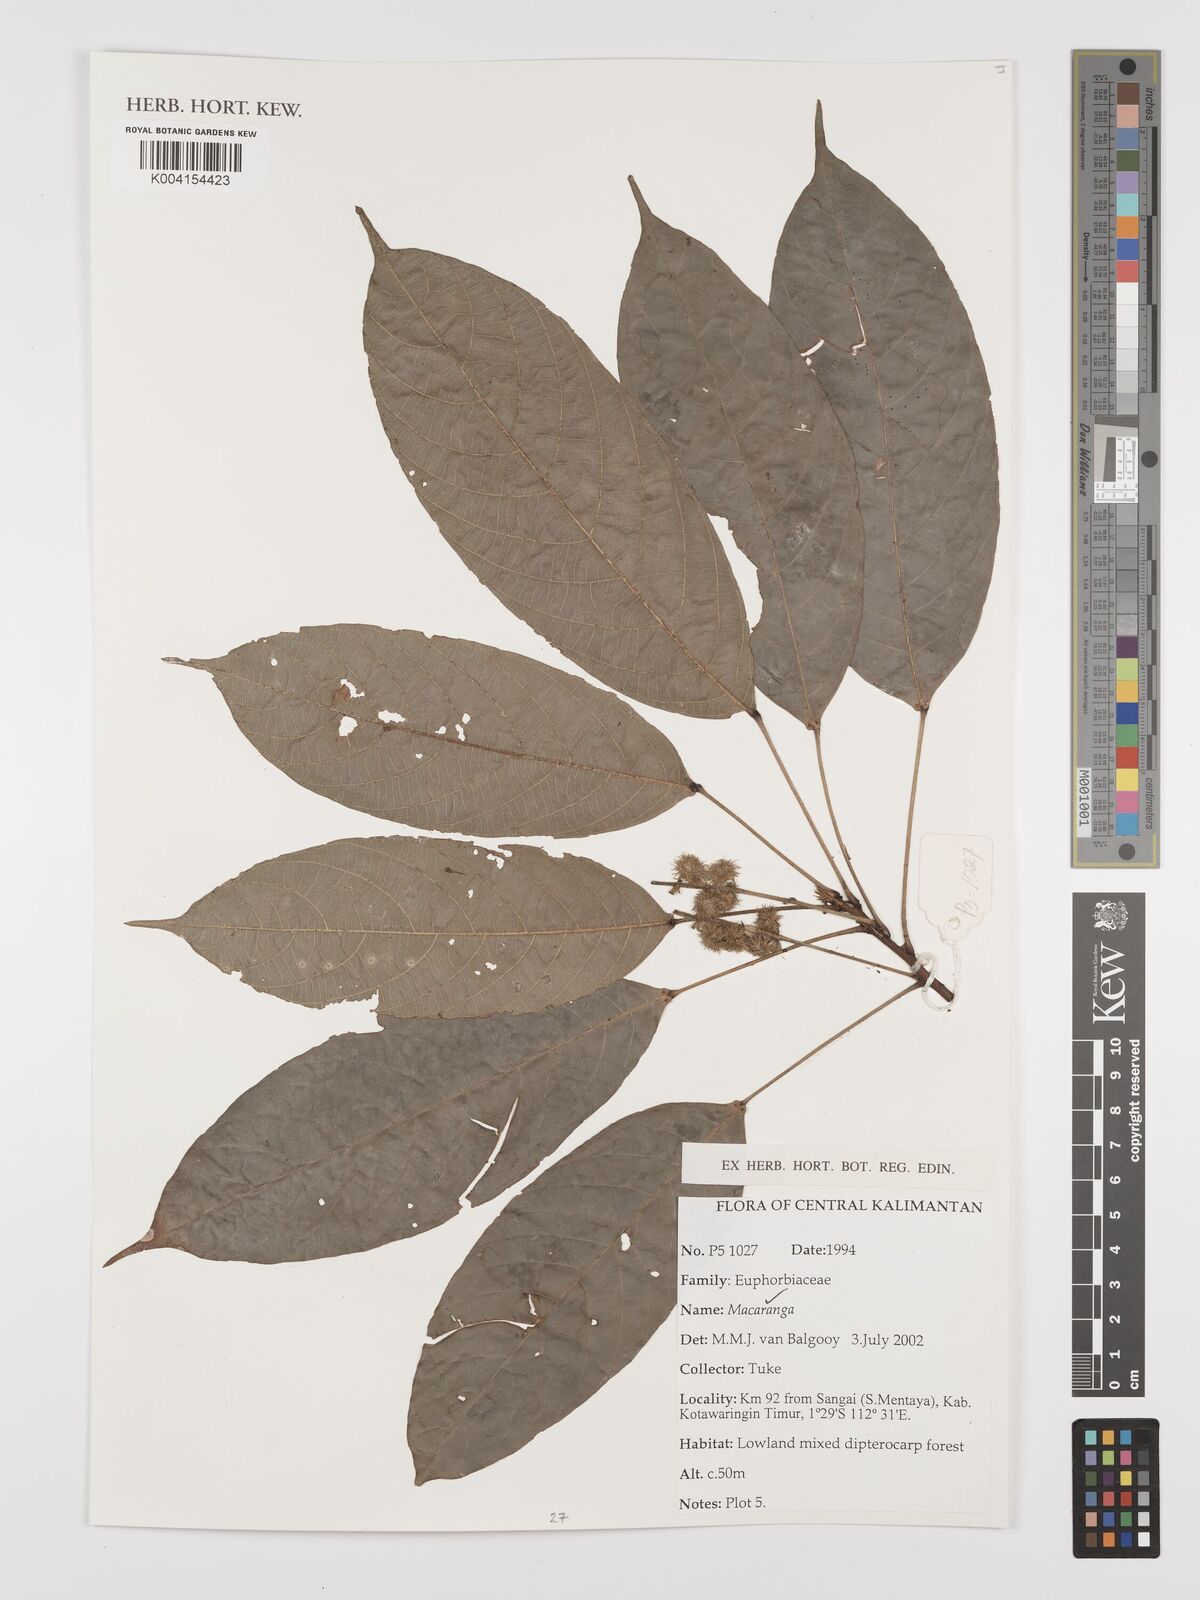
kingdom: Plantae
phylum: Tracheophyta
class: Magnoliopsida
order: Malpighiales
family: Euphorbiaceae
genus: Macaranga
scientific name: Macaranga
